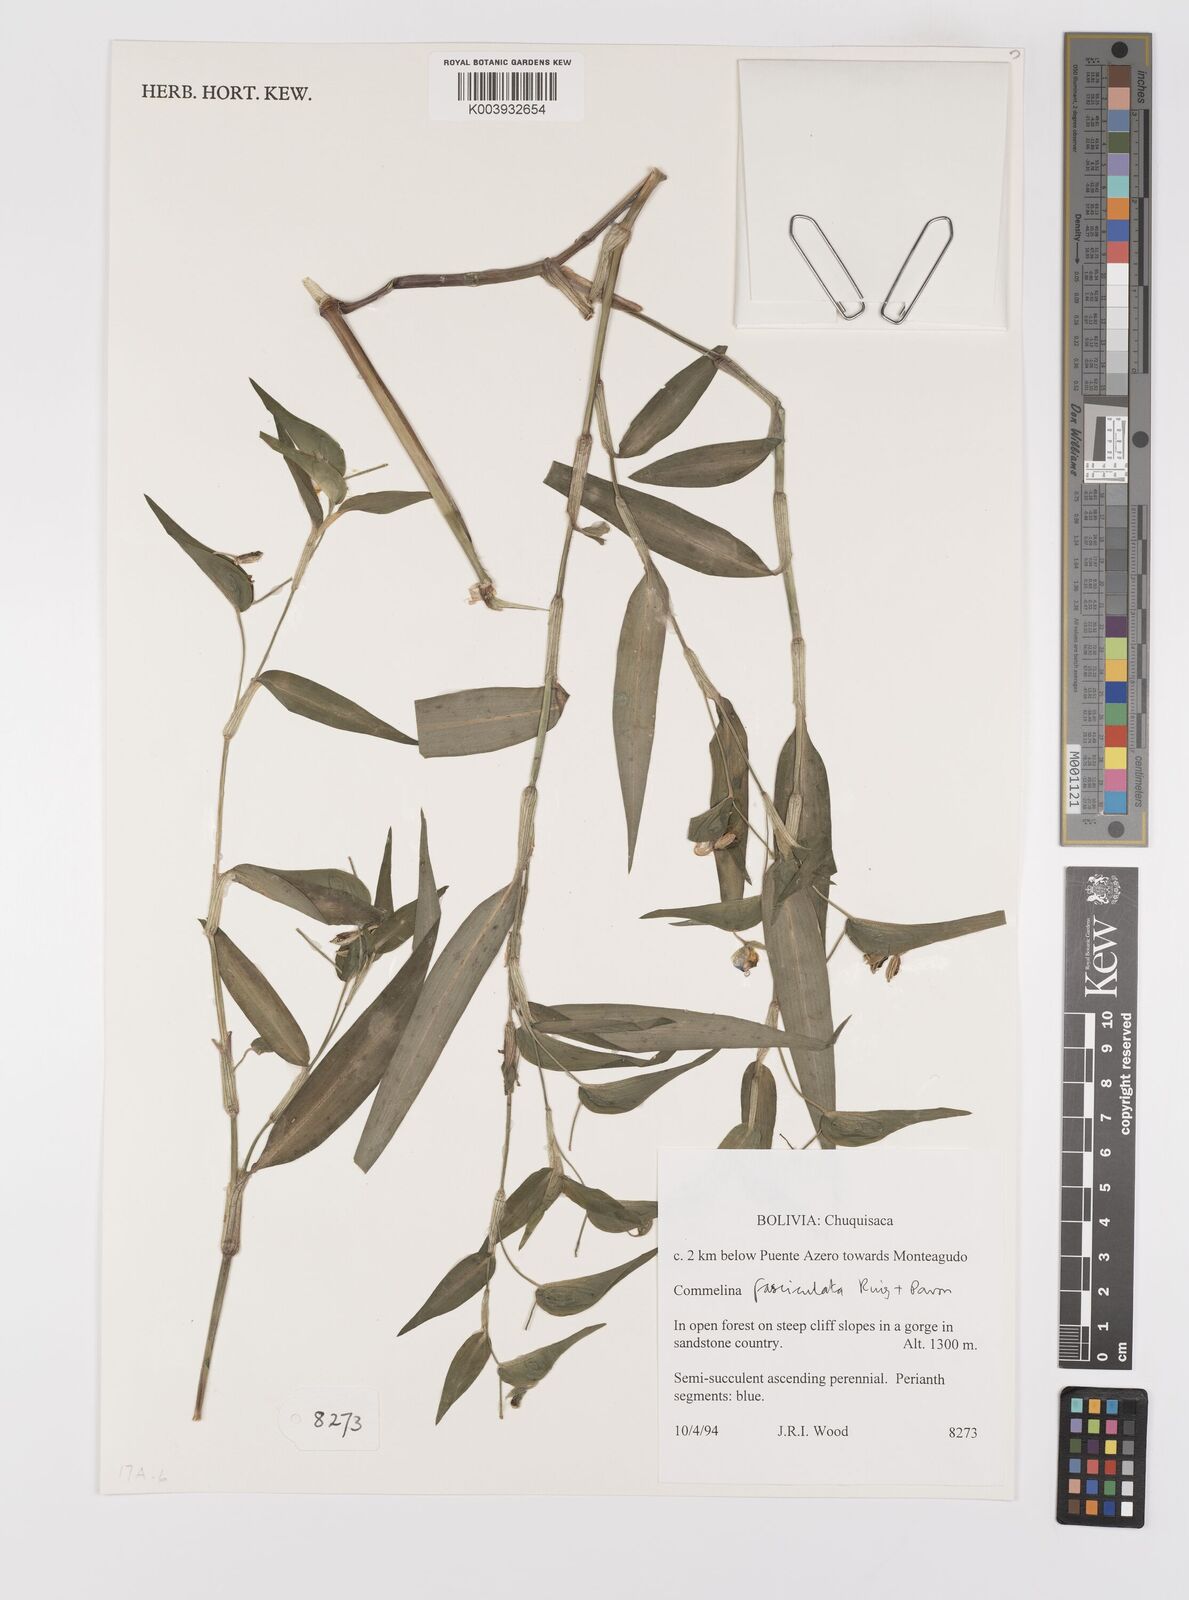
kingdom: Plantae
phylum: Tracheophyta
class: Liliopsida
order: Commelinales
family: Commelinaceae
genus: Commelina
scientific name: Commelina tuberosa
